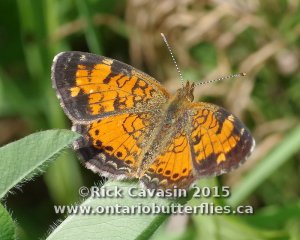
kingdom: Animalia
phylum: Arthropoda
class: Insecta
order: Lepidoptera
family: Nymphalidae
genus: Phyciodes
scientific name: Phyciodes tharos
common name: Northern Crescent
